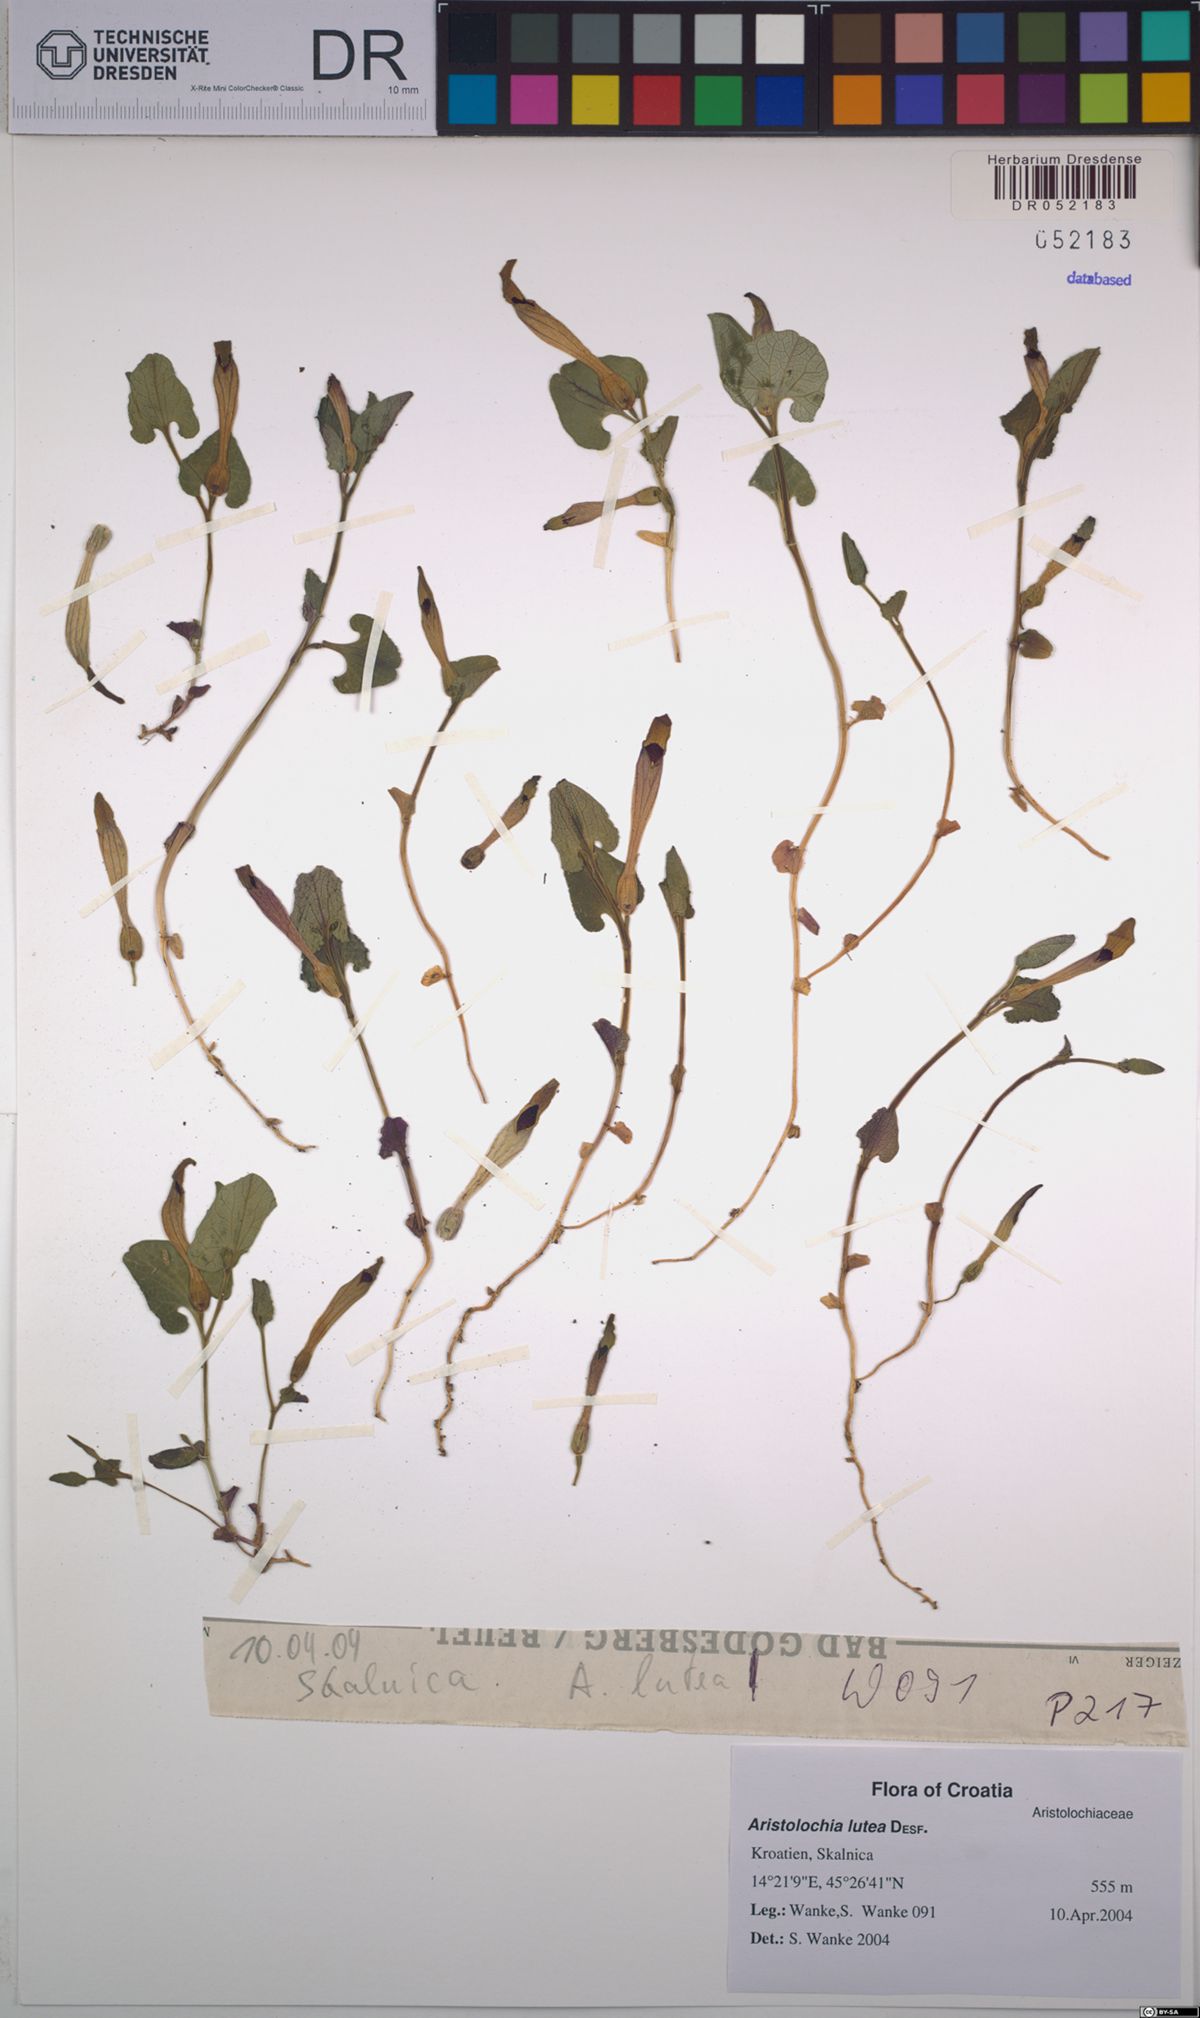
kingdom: Plantae
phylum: Tracheophyta
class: Magnoliopsida
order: Piperales
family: Aristolochiaceae
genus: Aristolochia
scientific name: Aristolochia lutea
